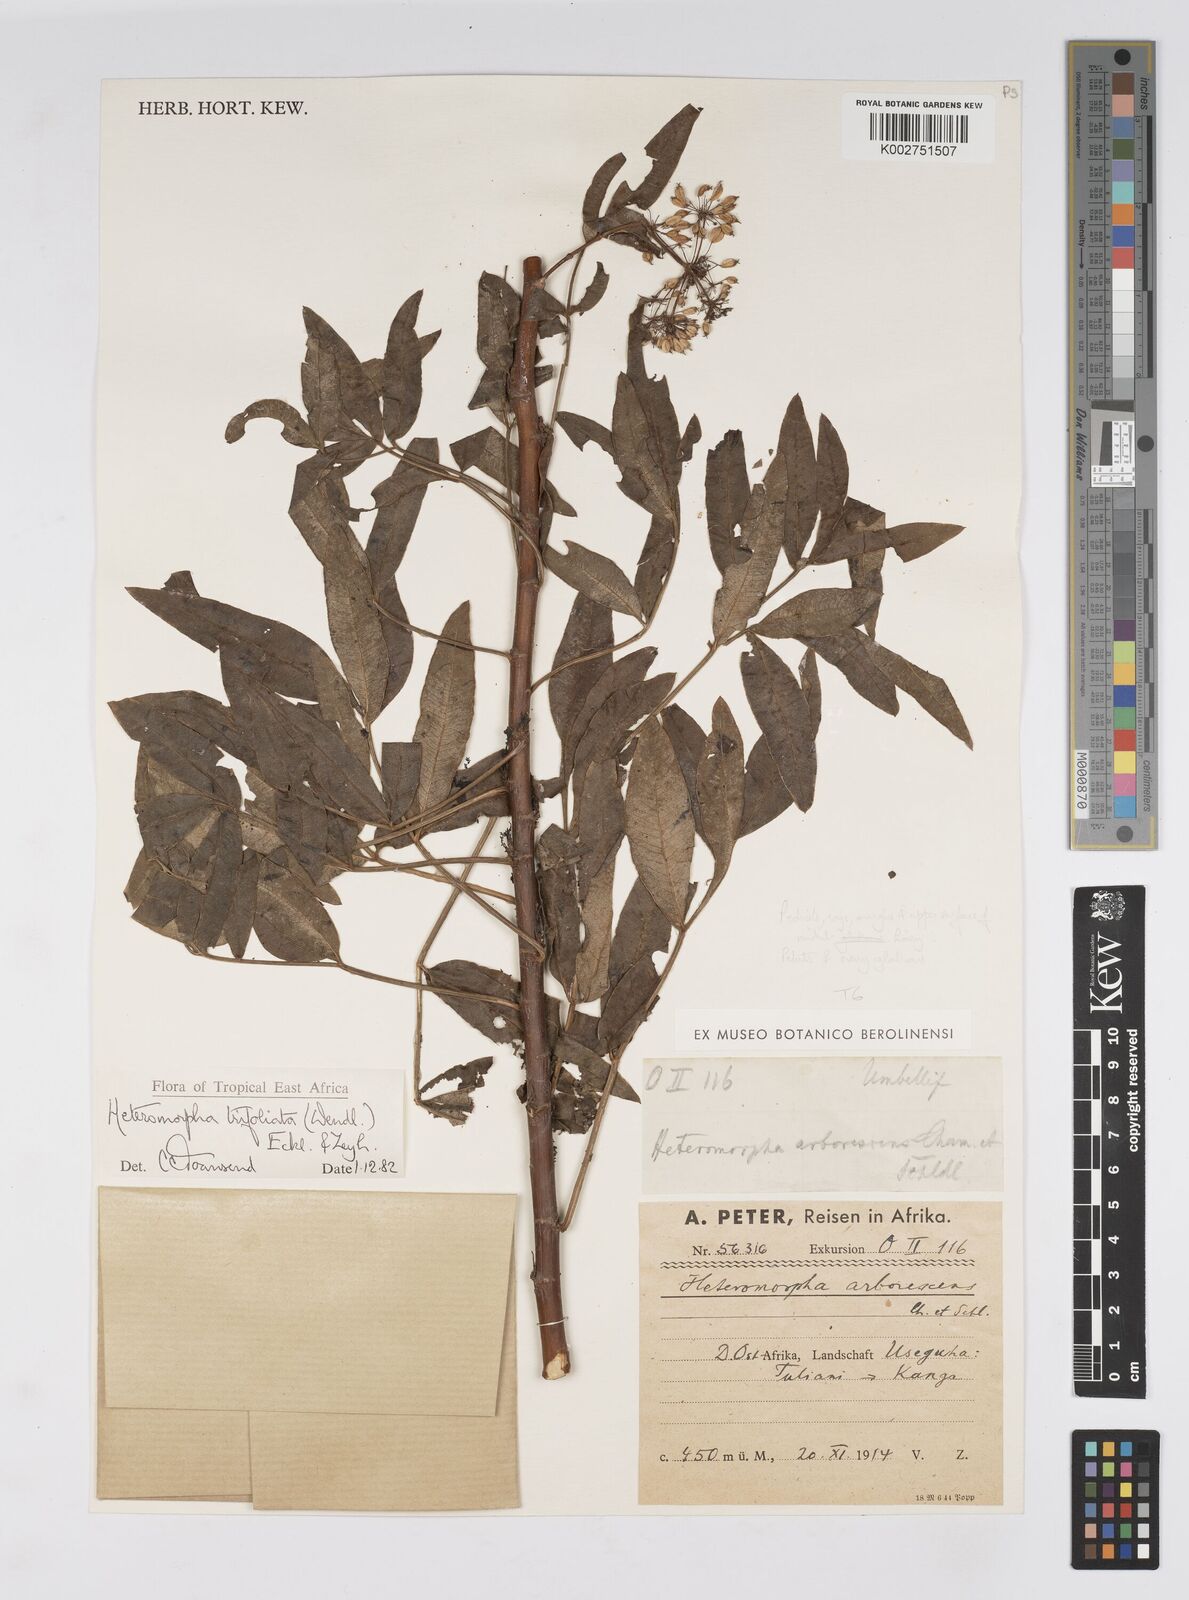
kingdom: Plantae
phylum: Tracheophyta
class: Magnoliopsida
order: Apiales
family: Apiaceae
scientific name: Apiaceae
